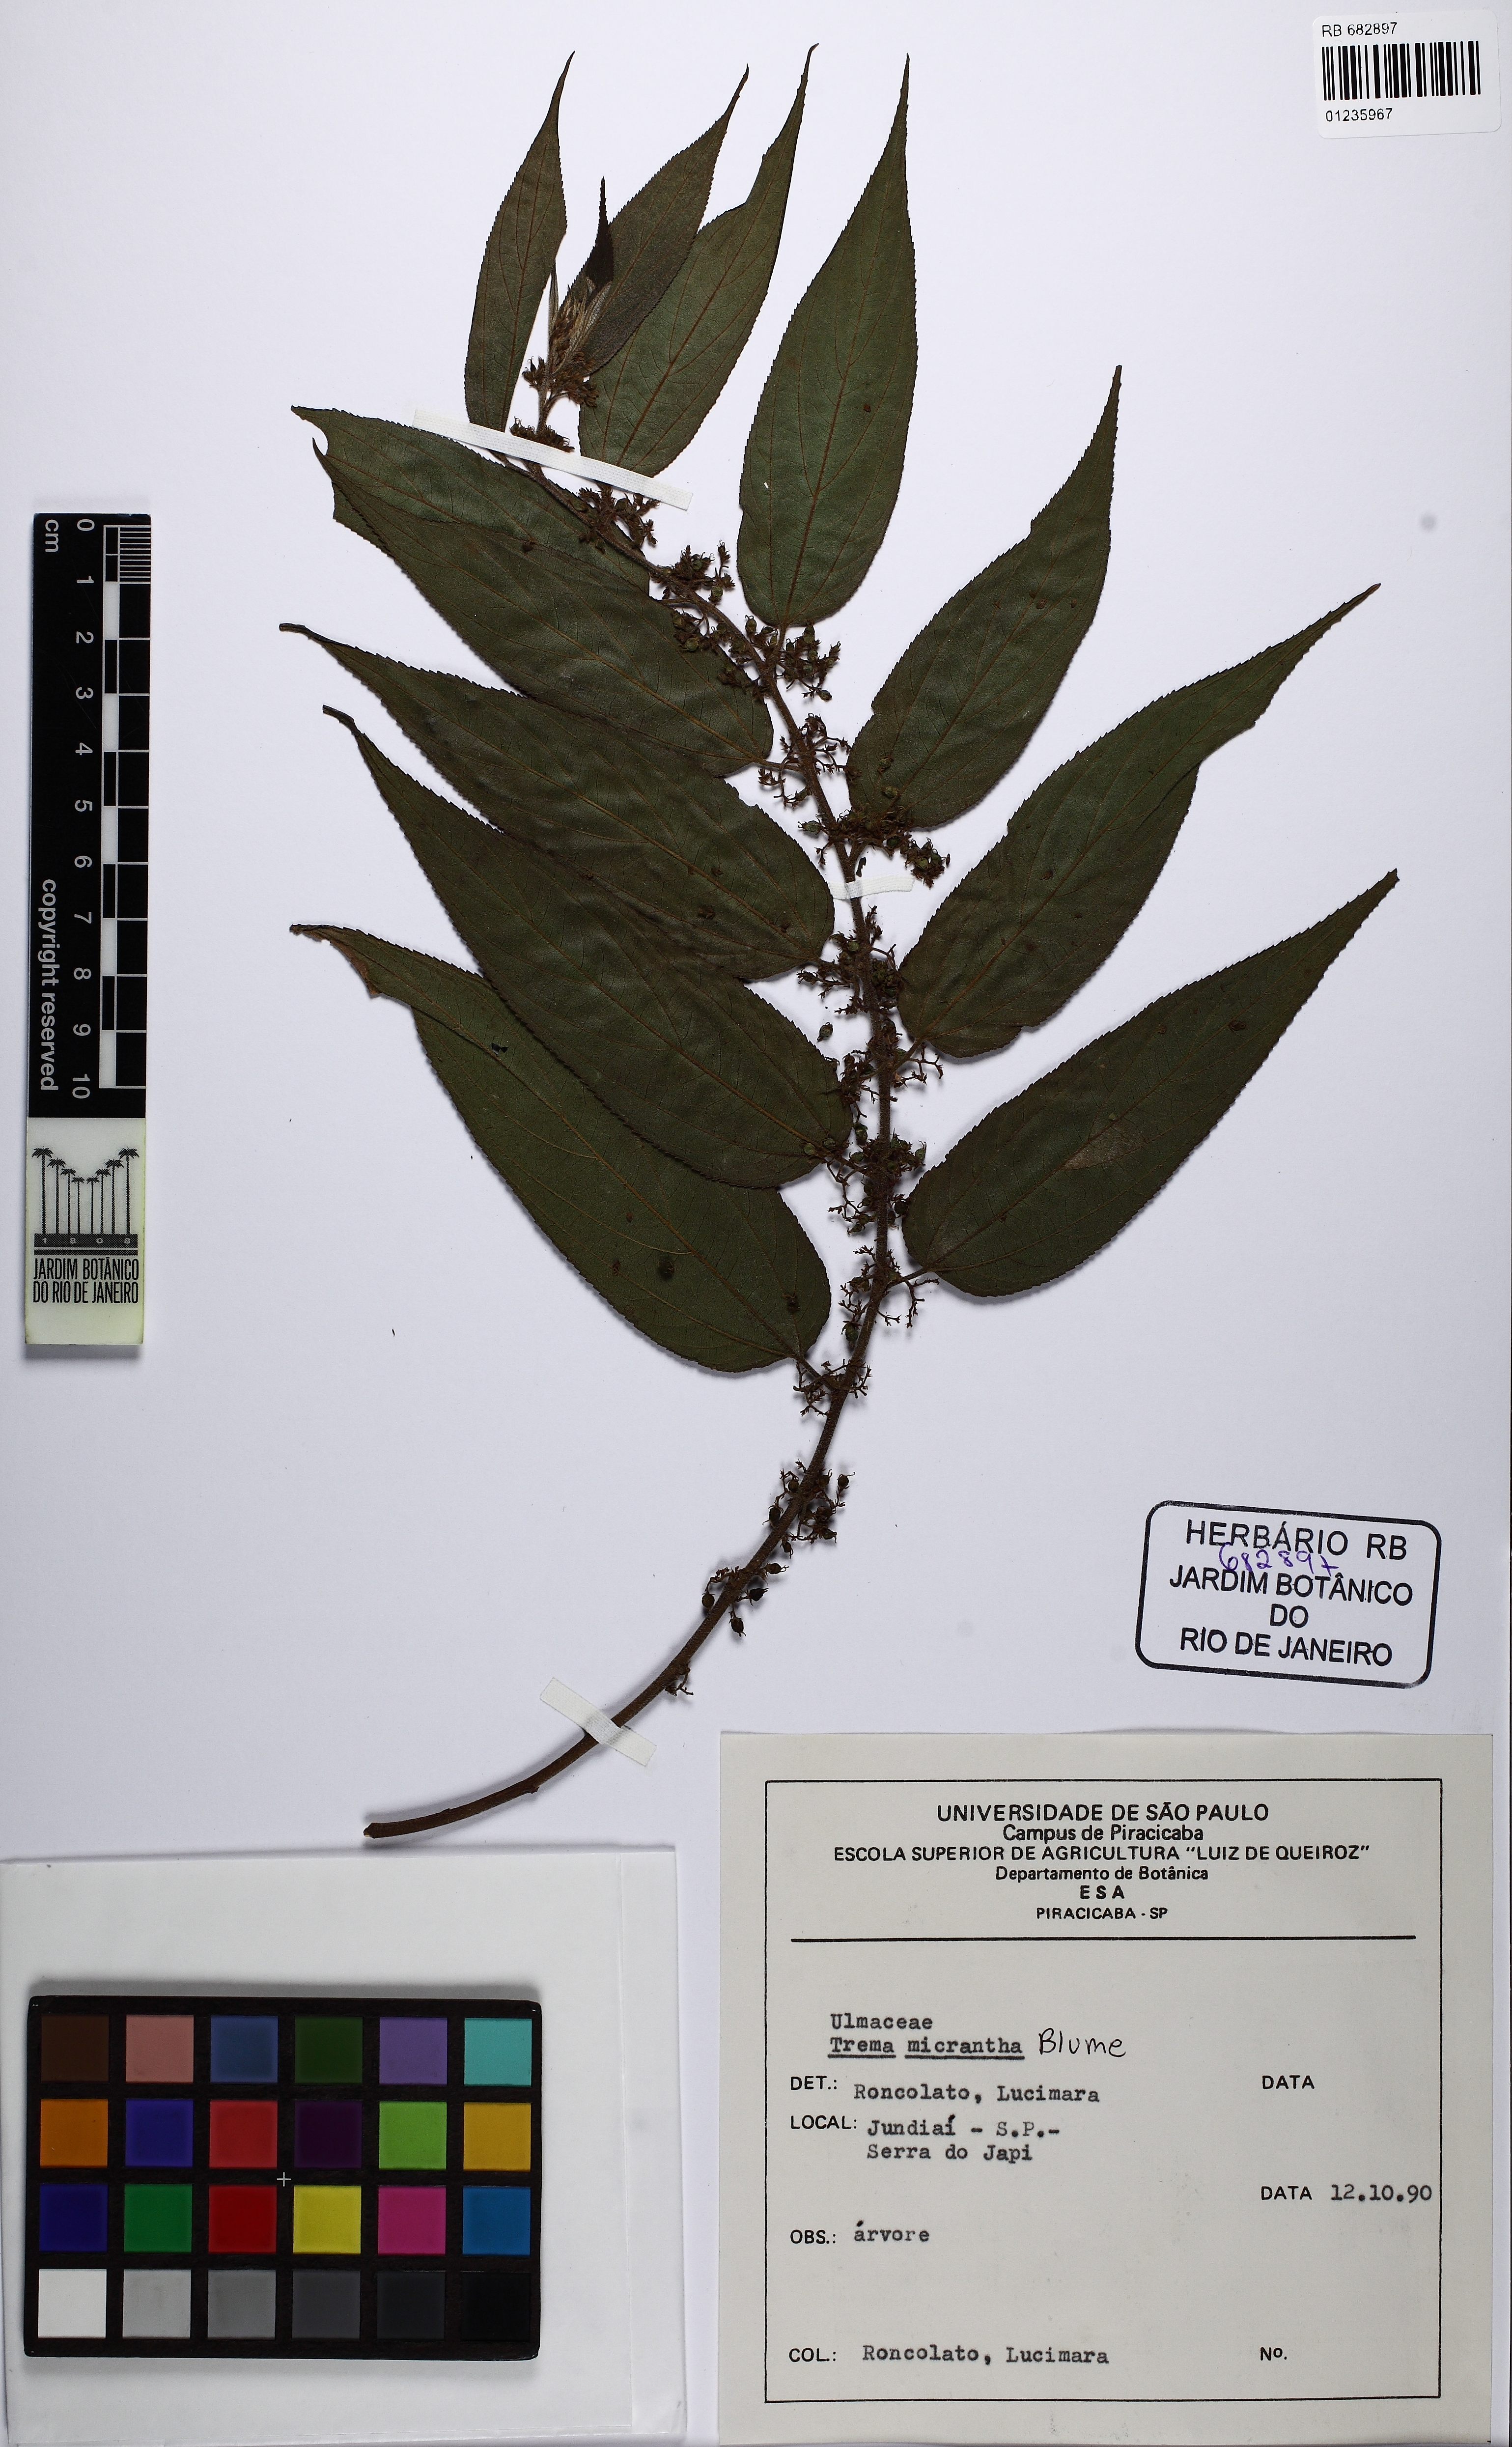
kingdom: Plantae
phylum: Tracheophyta
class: Magnoliopsida
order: Rosales
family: Cannabaceae
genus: Trema
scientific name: Trema micranthum
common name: Jamaican nettletree
